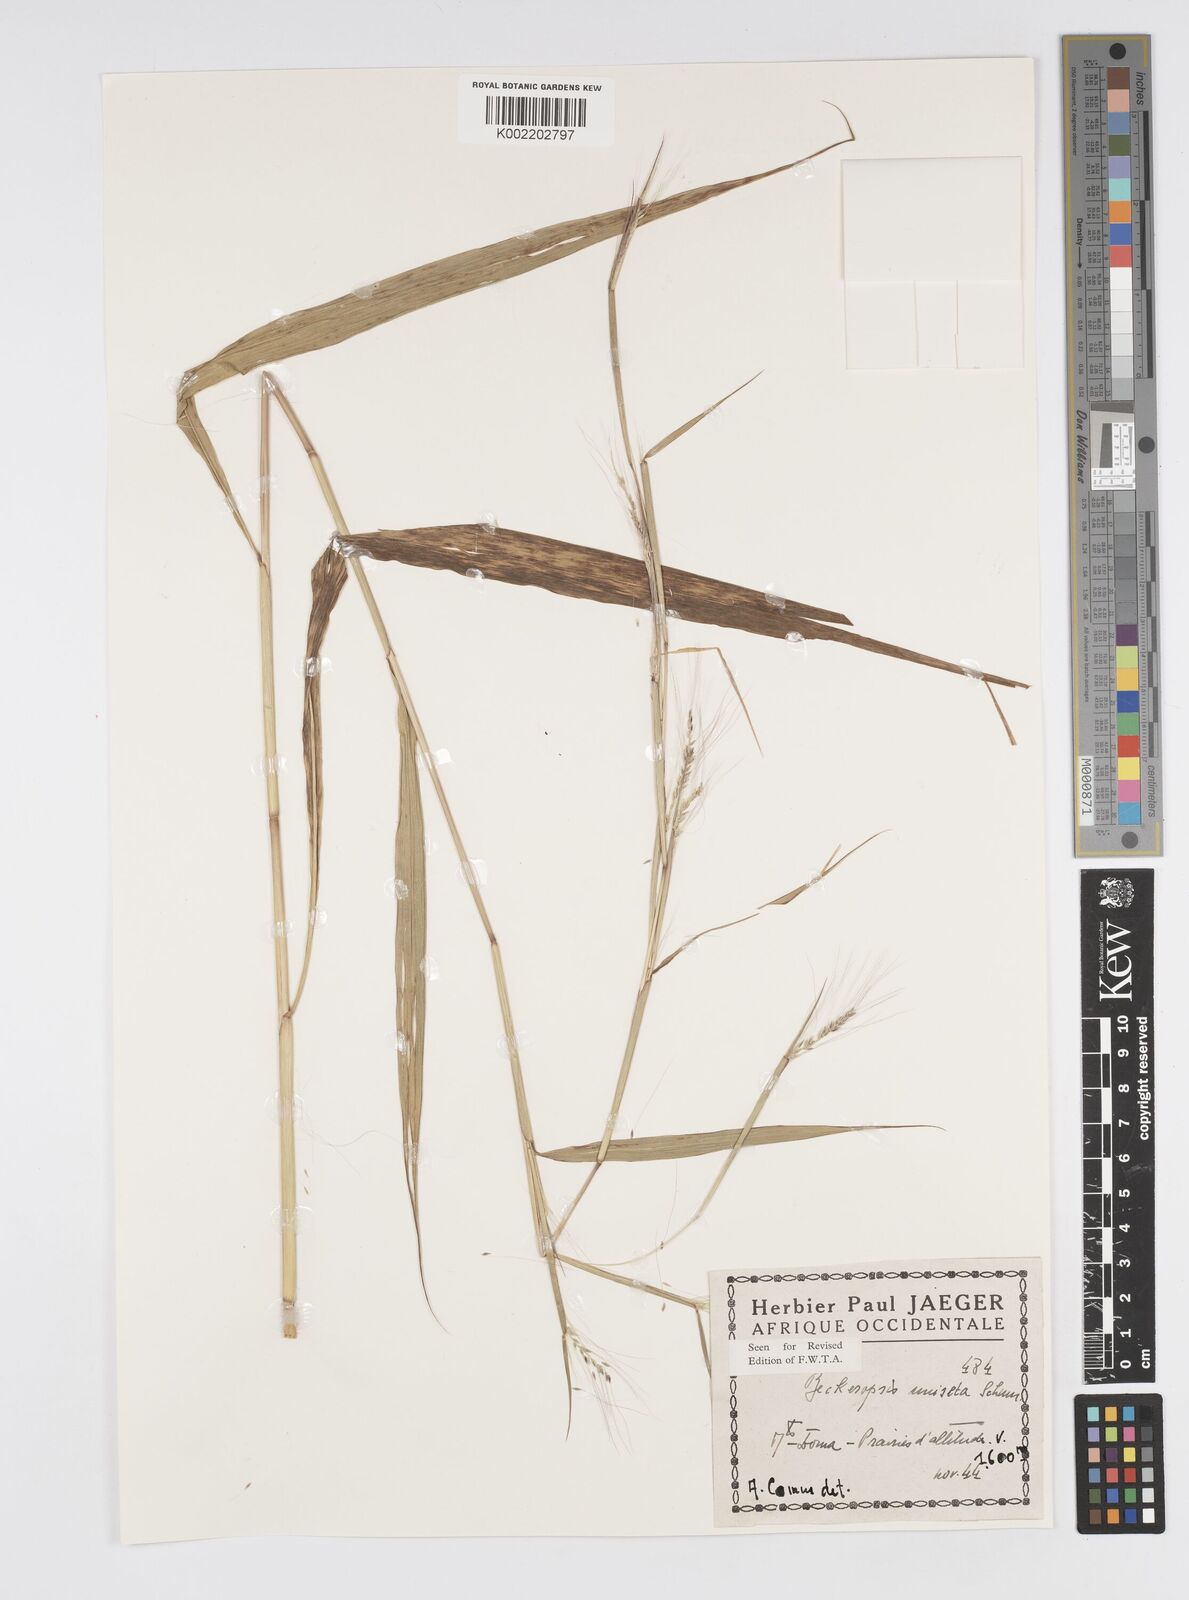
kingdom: Plantae
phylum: Tracheophyta
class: Liliopsida
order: Poales
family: Poaceae
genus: Cenchrus
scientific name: Cenchrus unisetus
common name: Natal grass
